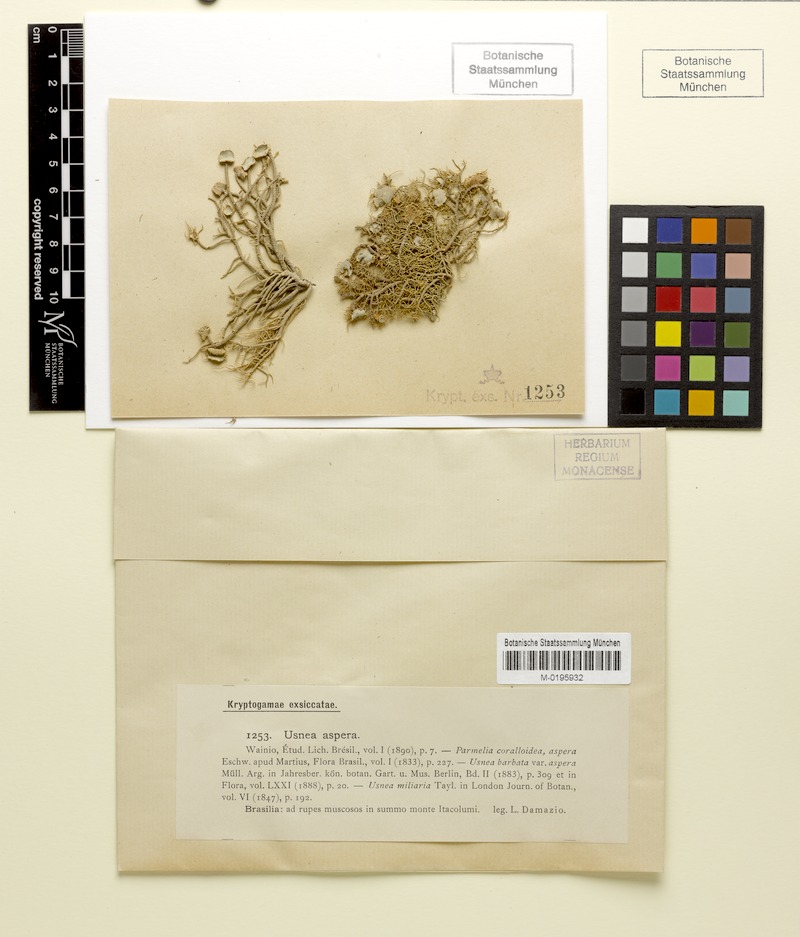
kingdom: Fungi
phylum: Ascomycota
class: Lecanoromycetes
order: Lecanorales
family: Parmeliaceae
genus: Usnea
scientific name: Usnea aspera
